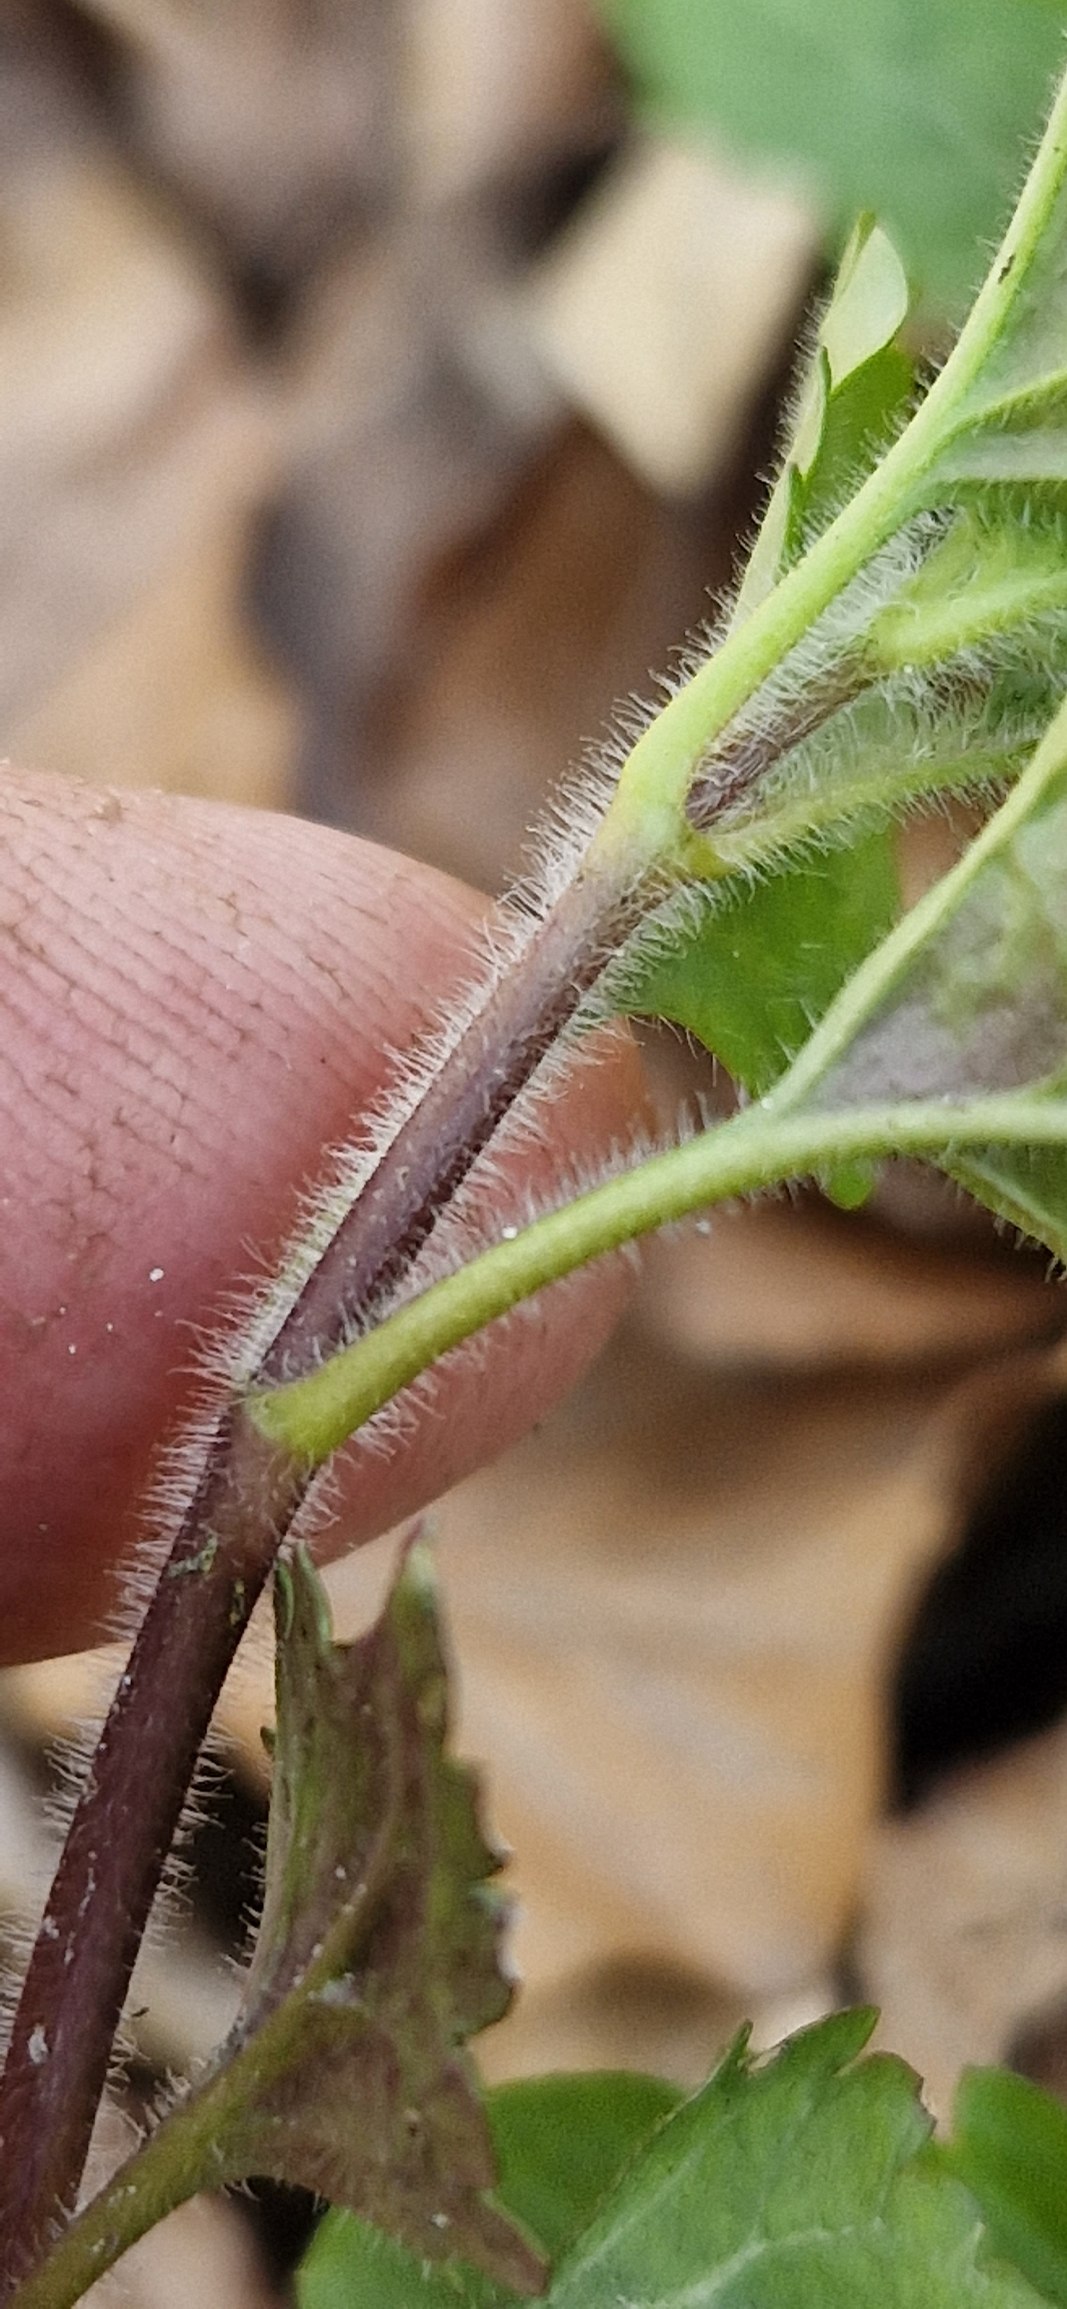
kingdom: Plantae
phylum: Tracheophyta
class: Magnoliopsida
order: Lamiales
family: Plantaginaceae
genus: Veronica
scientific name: Veronica montana
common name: Bjerg-ærenpris
